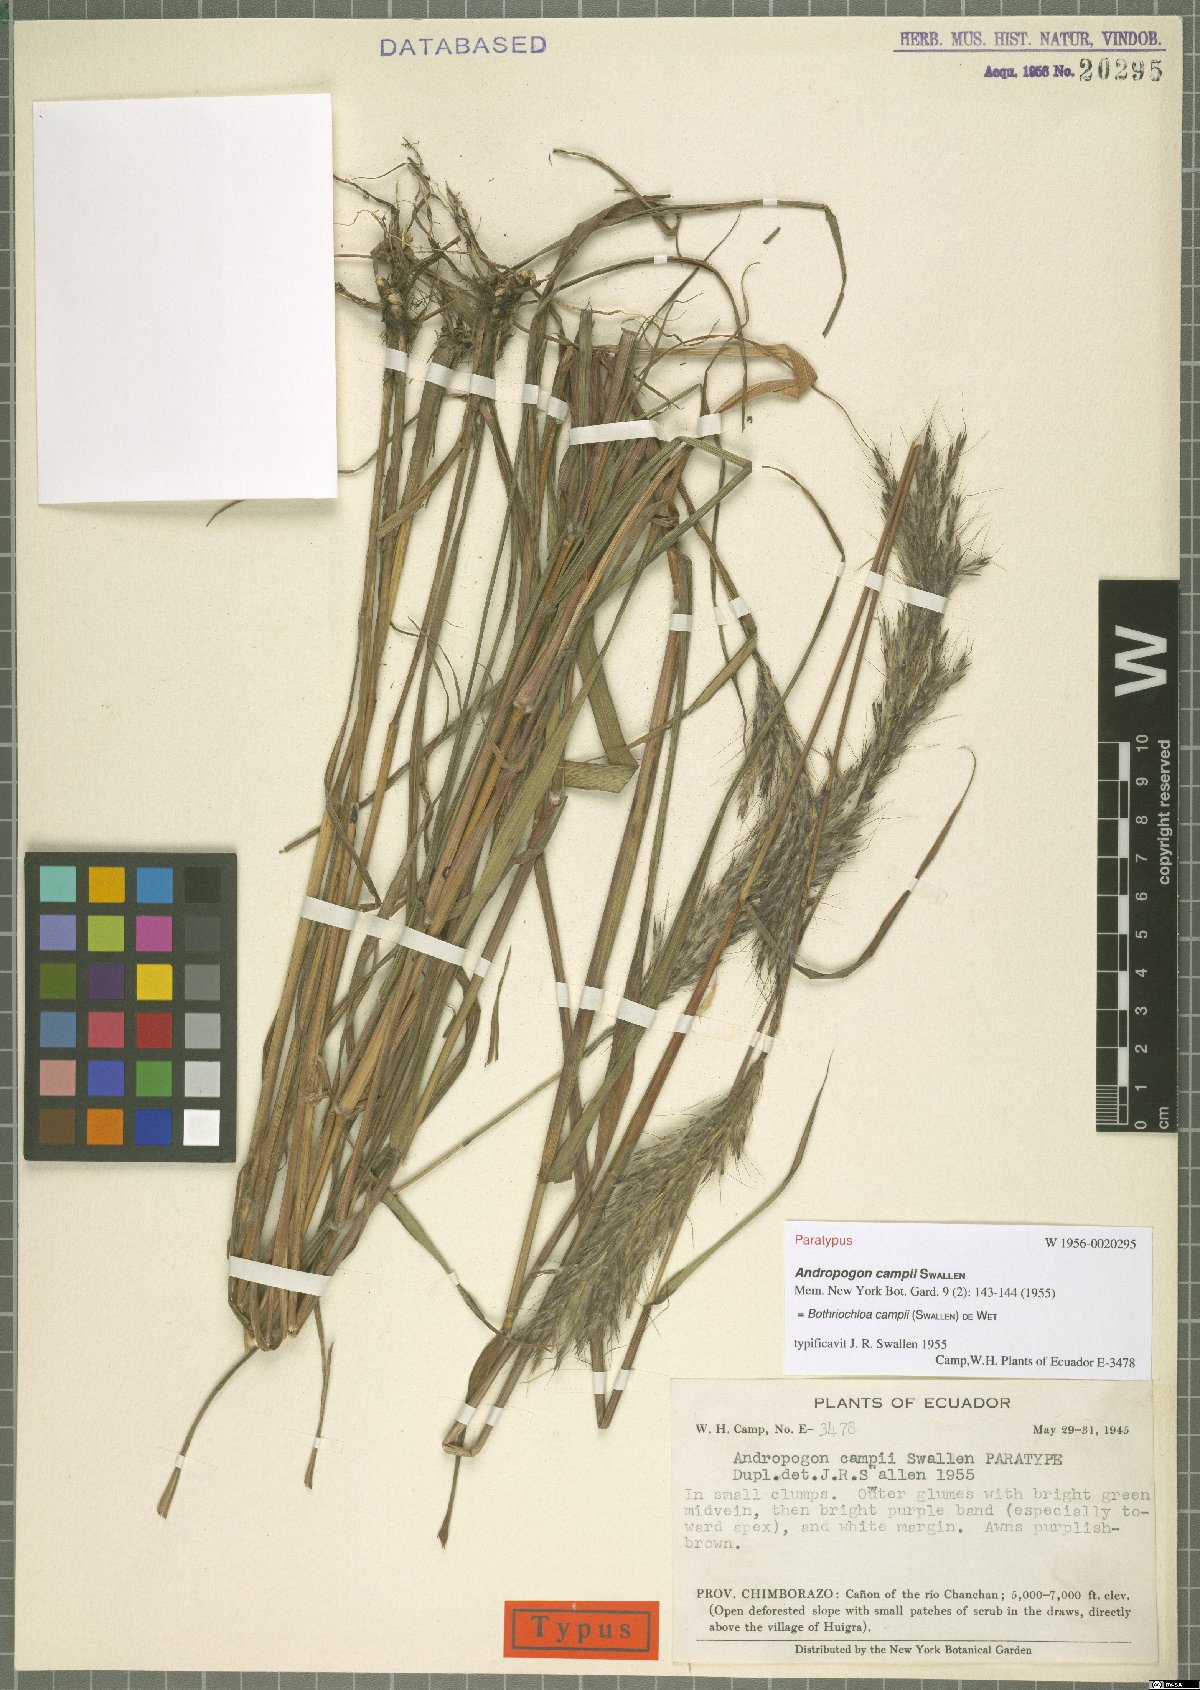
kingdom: Plantae
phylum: Tracheophyta
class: Liliopsida
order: Poales
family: Poaceae
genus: Bothriochloa
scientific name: Bothriochloa campii
